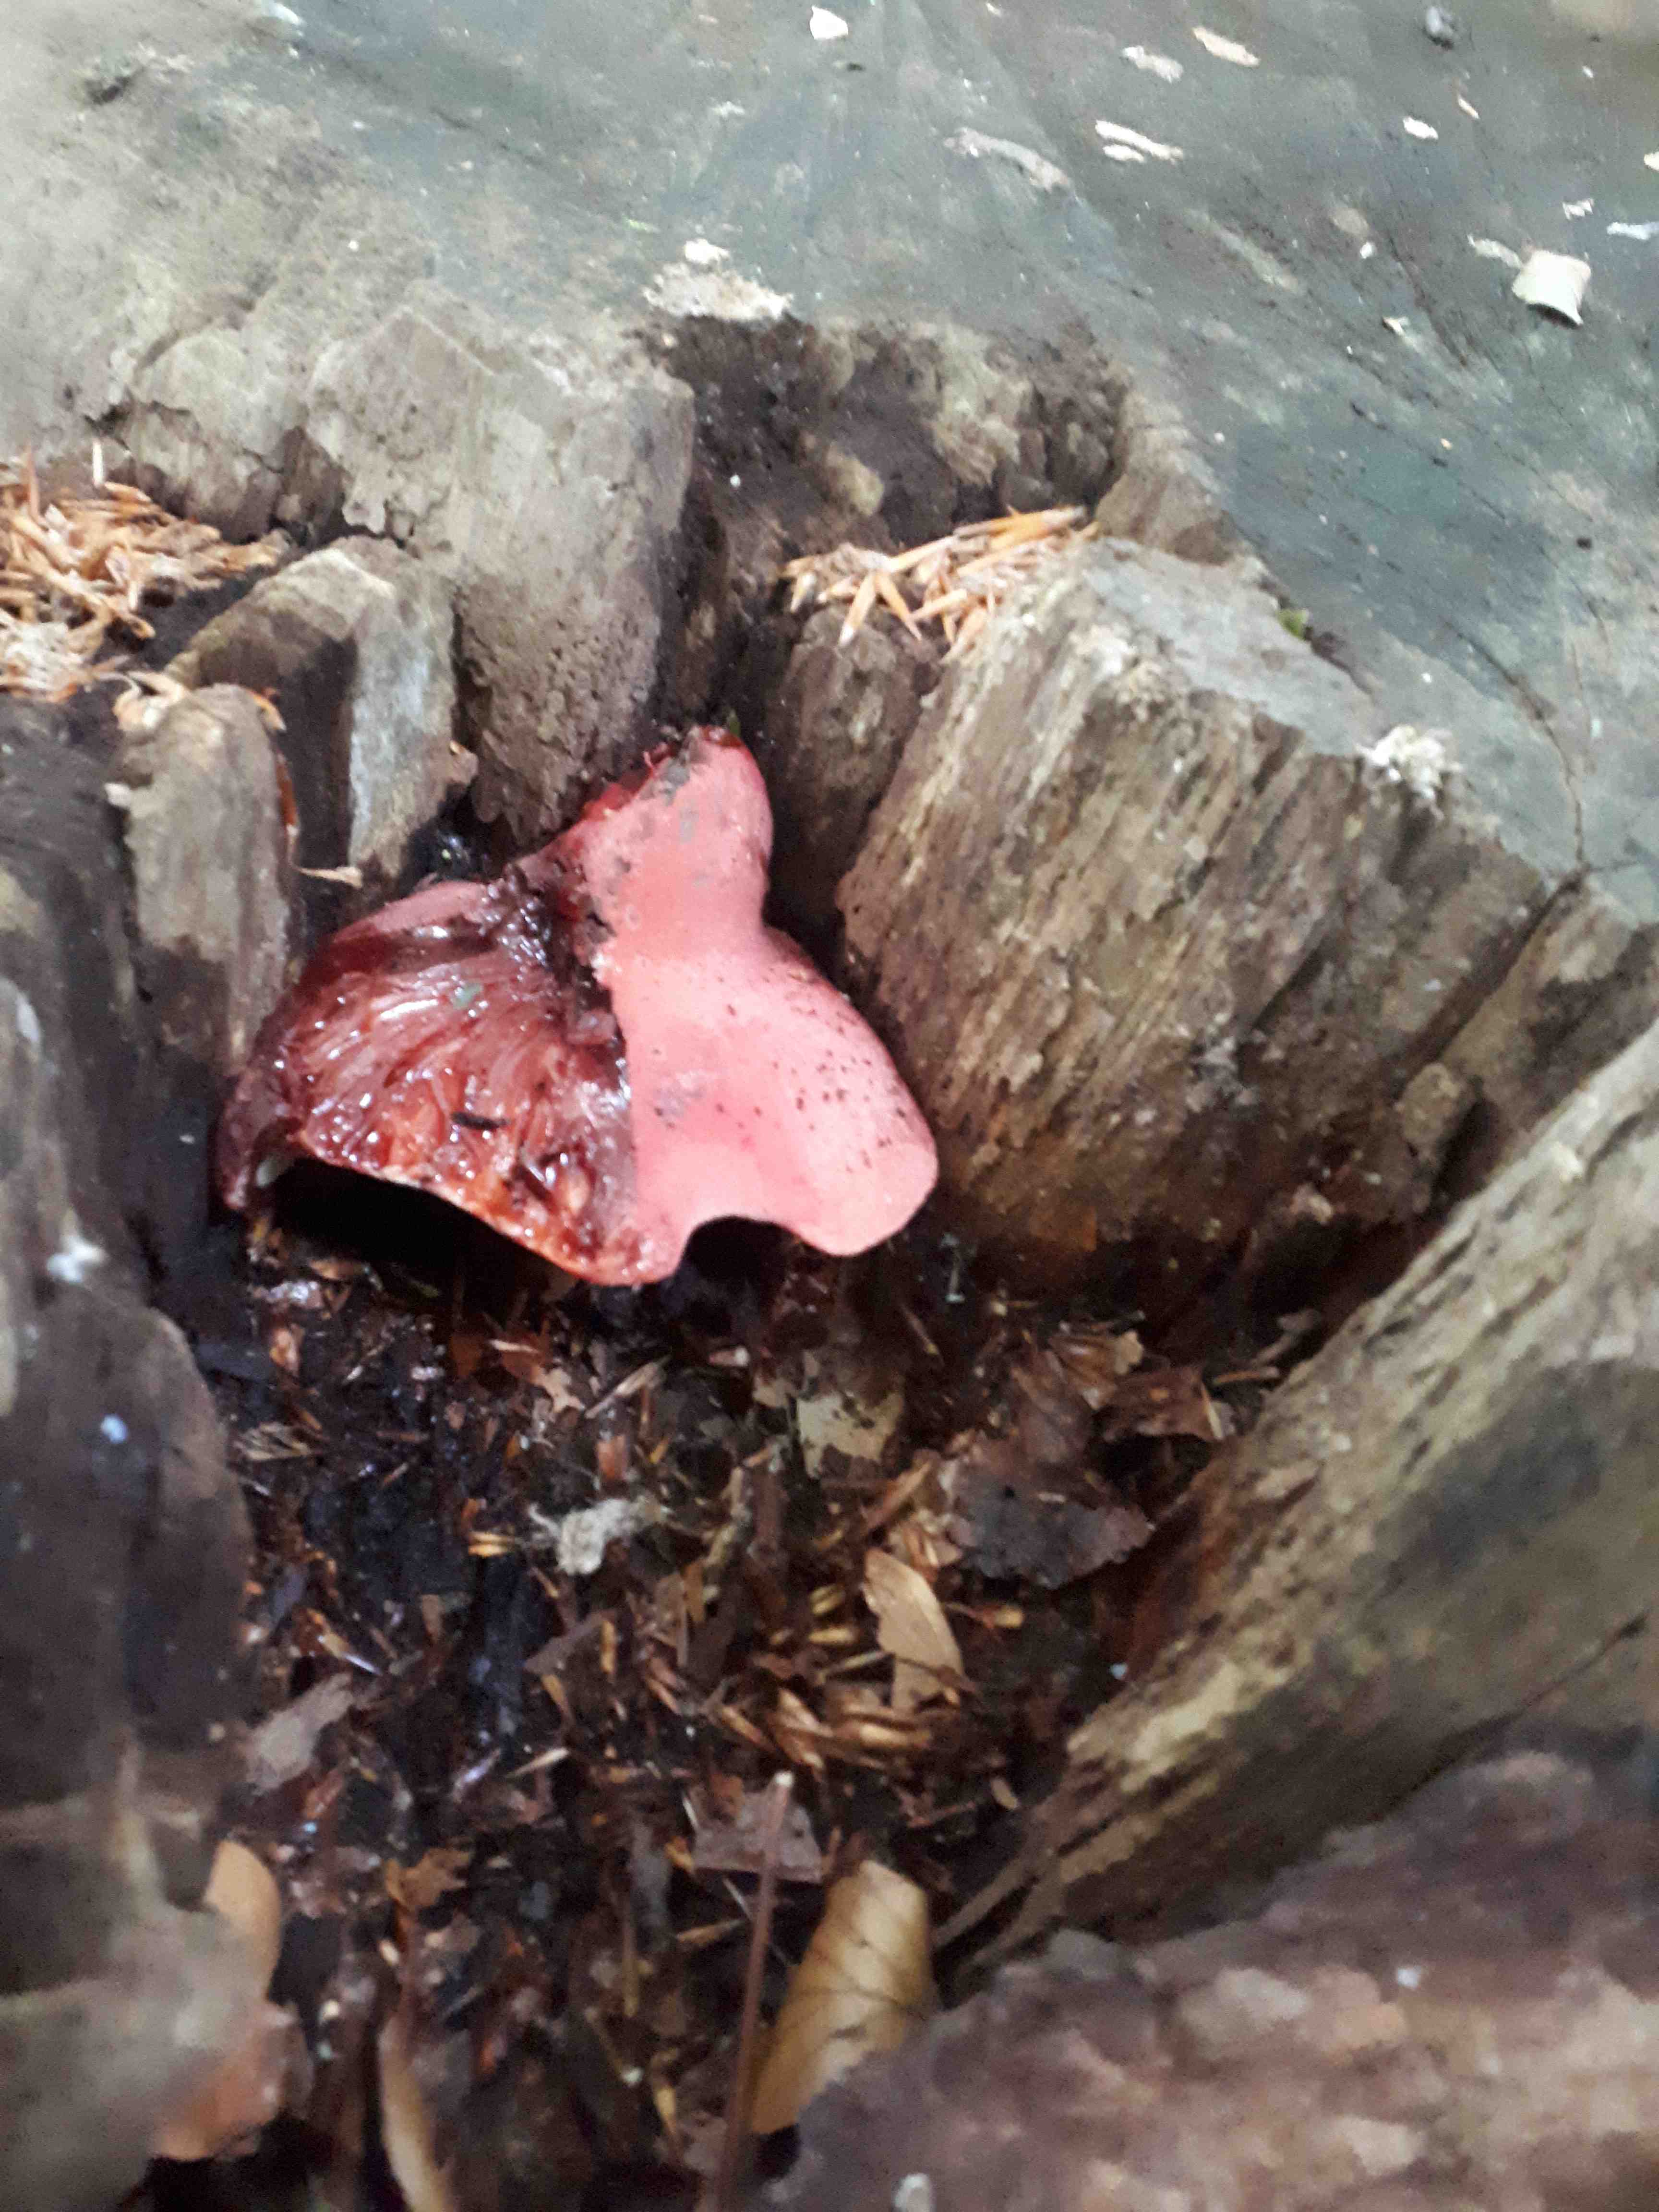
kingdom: Fungi
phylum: Basidiomycota
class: Agaricomycetes
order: Agaricales
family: Fistulinaceae
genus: Fistulina
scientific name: Fistulina hepatica
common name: oksetunge
